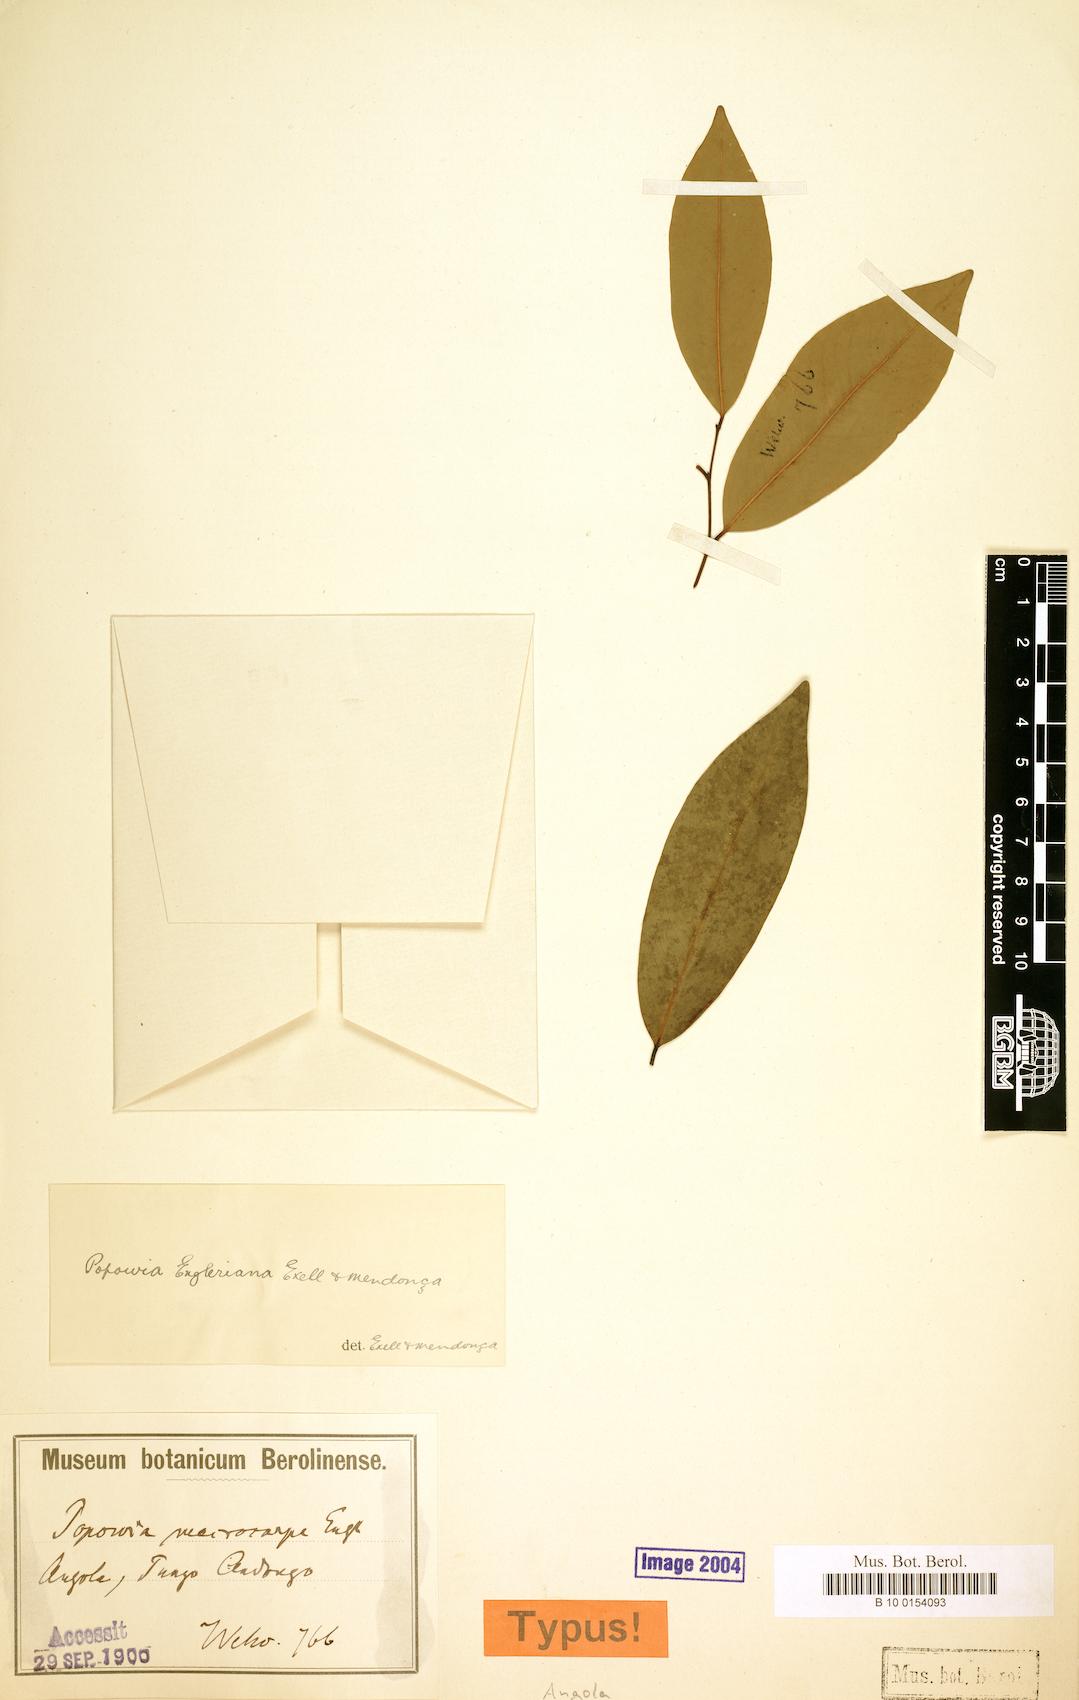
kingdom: Plantae
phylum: Tracheophyta
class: Magnoliopsida
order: Magnoliales
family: Annonaceae
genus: Sphaerocoryne
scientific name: Sphaerocoryne gracilis
